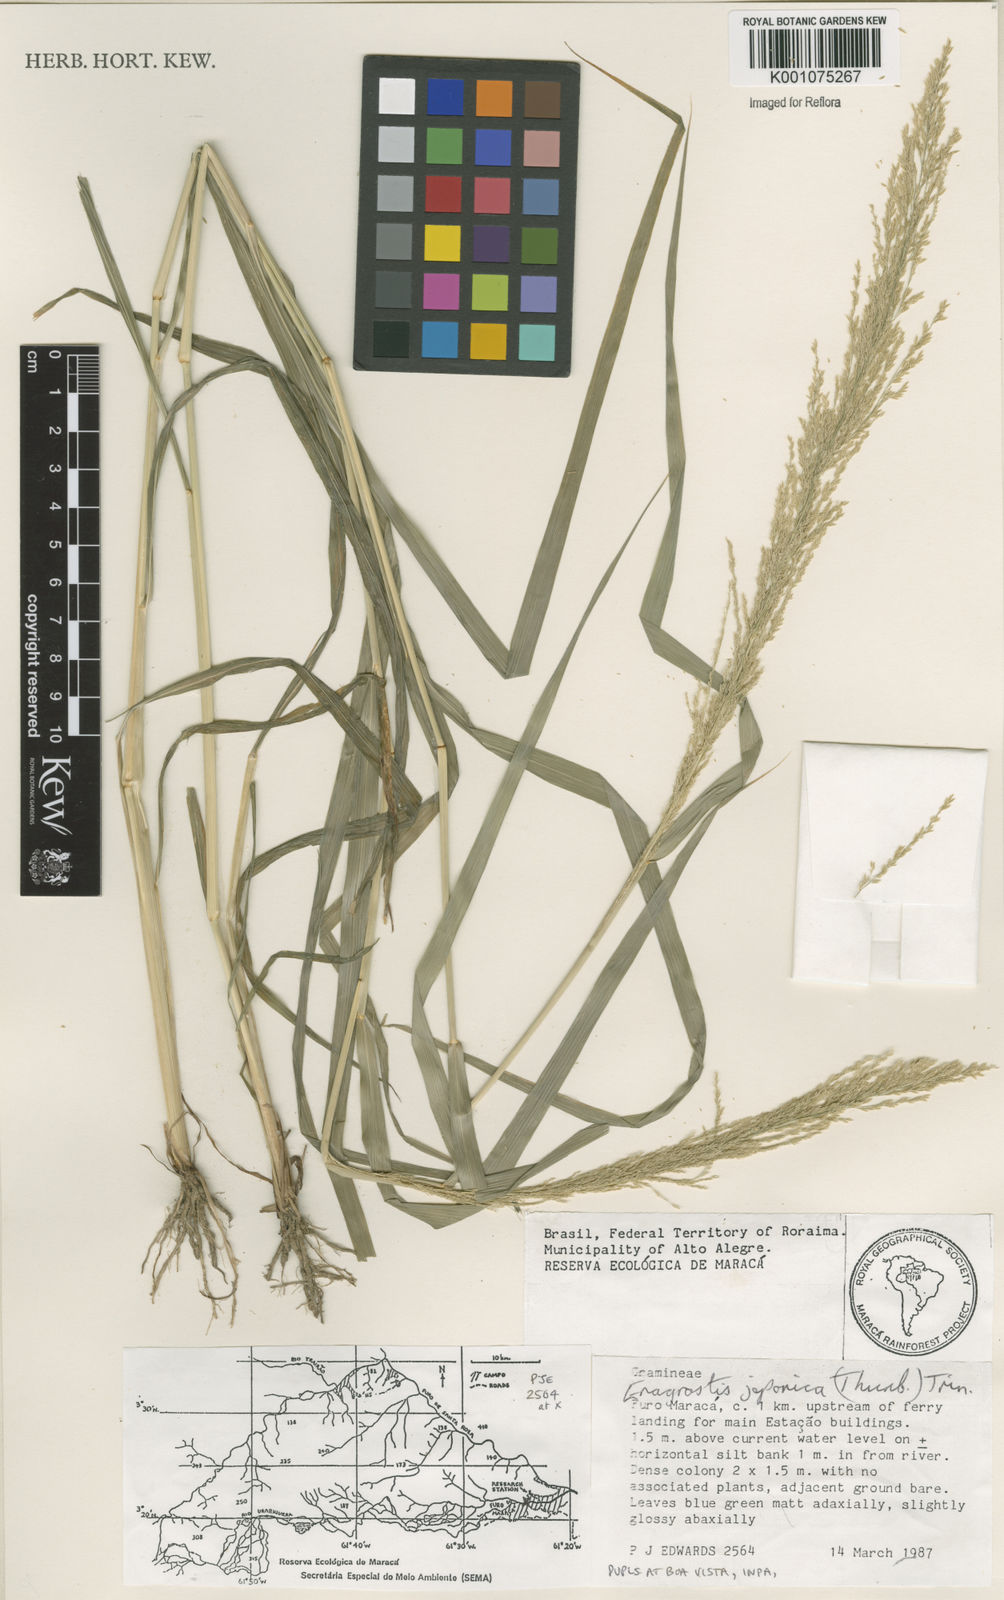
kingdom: Plantae
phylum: Tracheophyta
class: Liliopsida
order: Poales
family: Poaceae
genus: Eragrostis
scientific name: Eragrostis japonica
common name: Pond lovegrass
